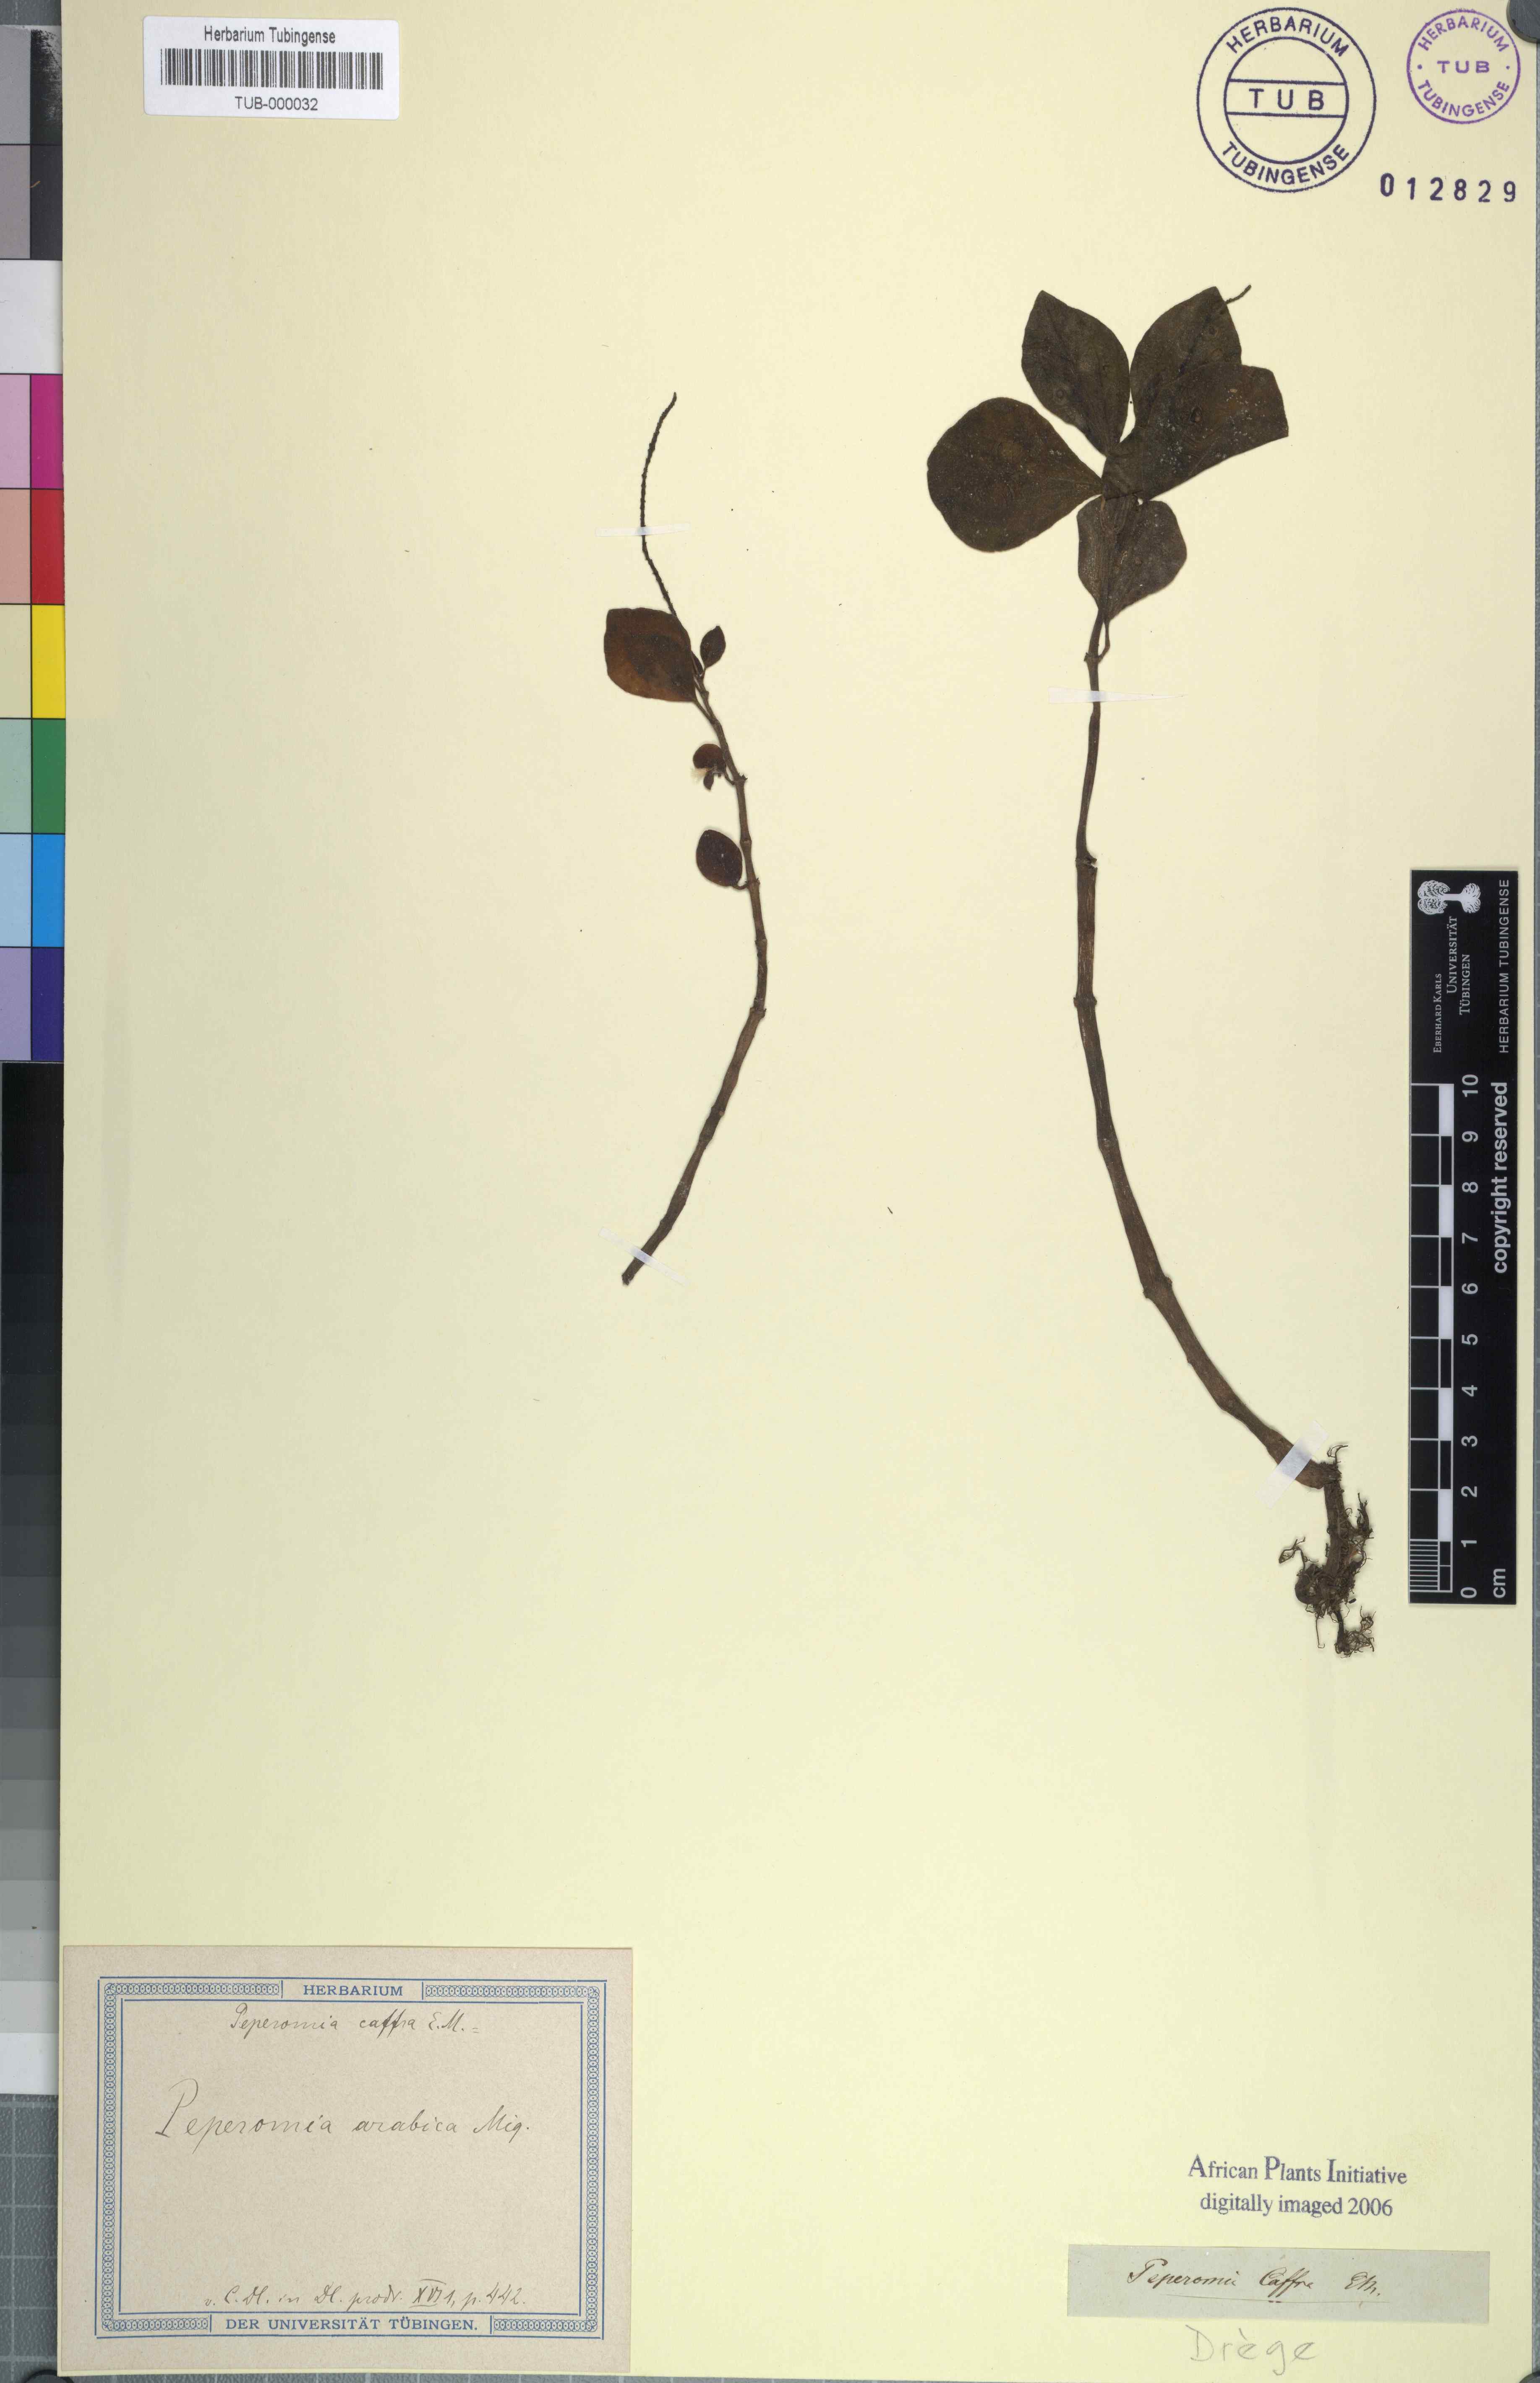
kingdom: Plantae
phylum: Tracheophyta
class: Magnoliopsida
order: Piperales
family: Piperaceae
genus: Peperomia
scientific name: Peperomia leptostachya
